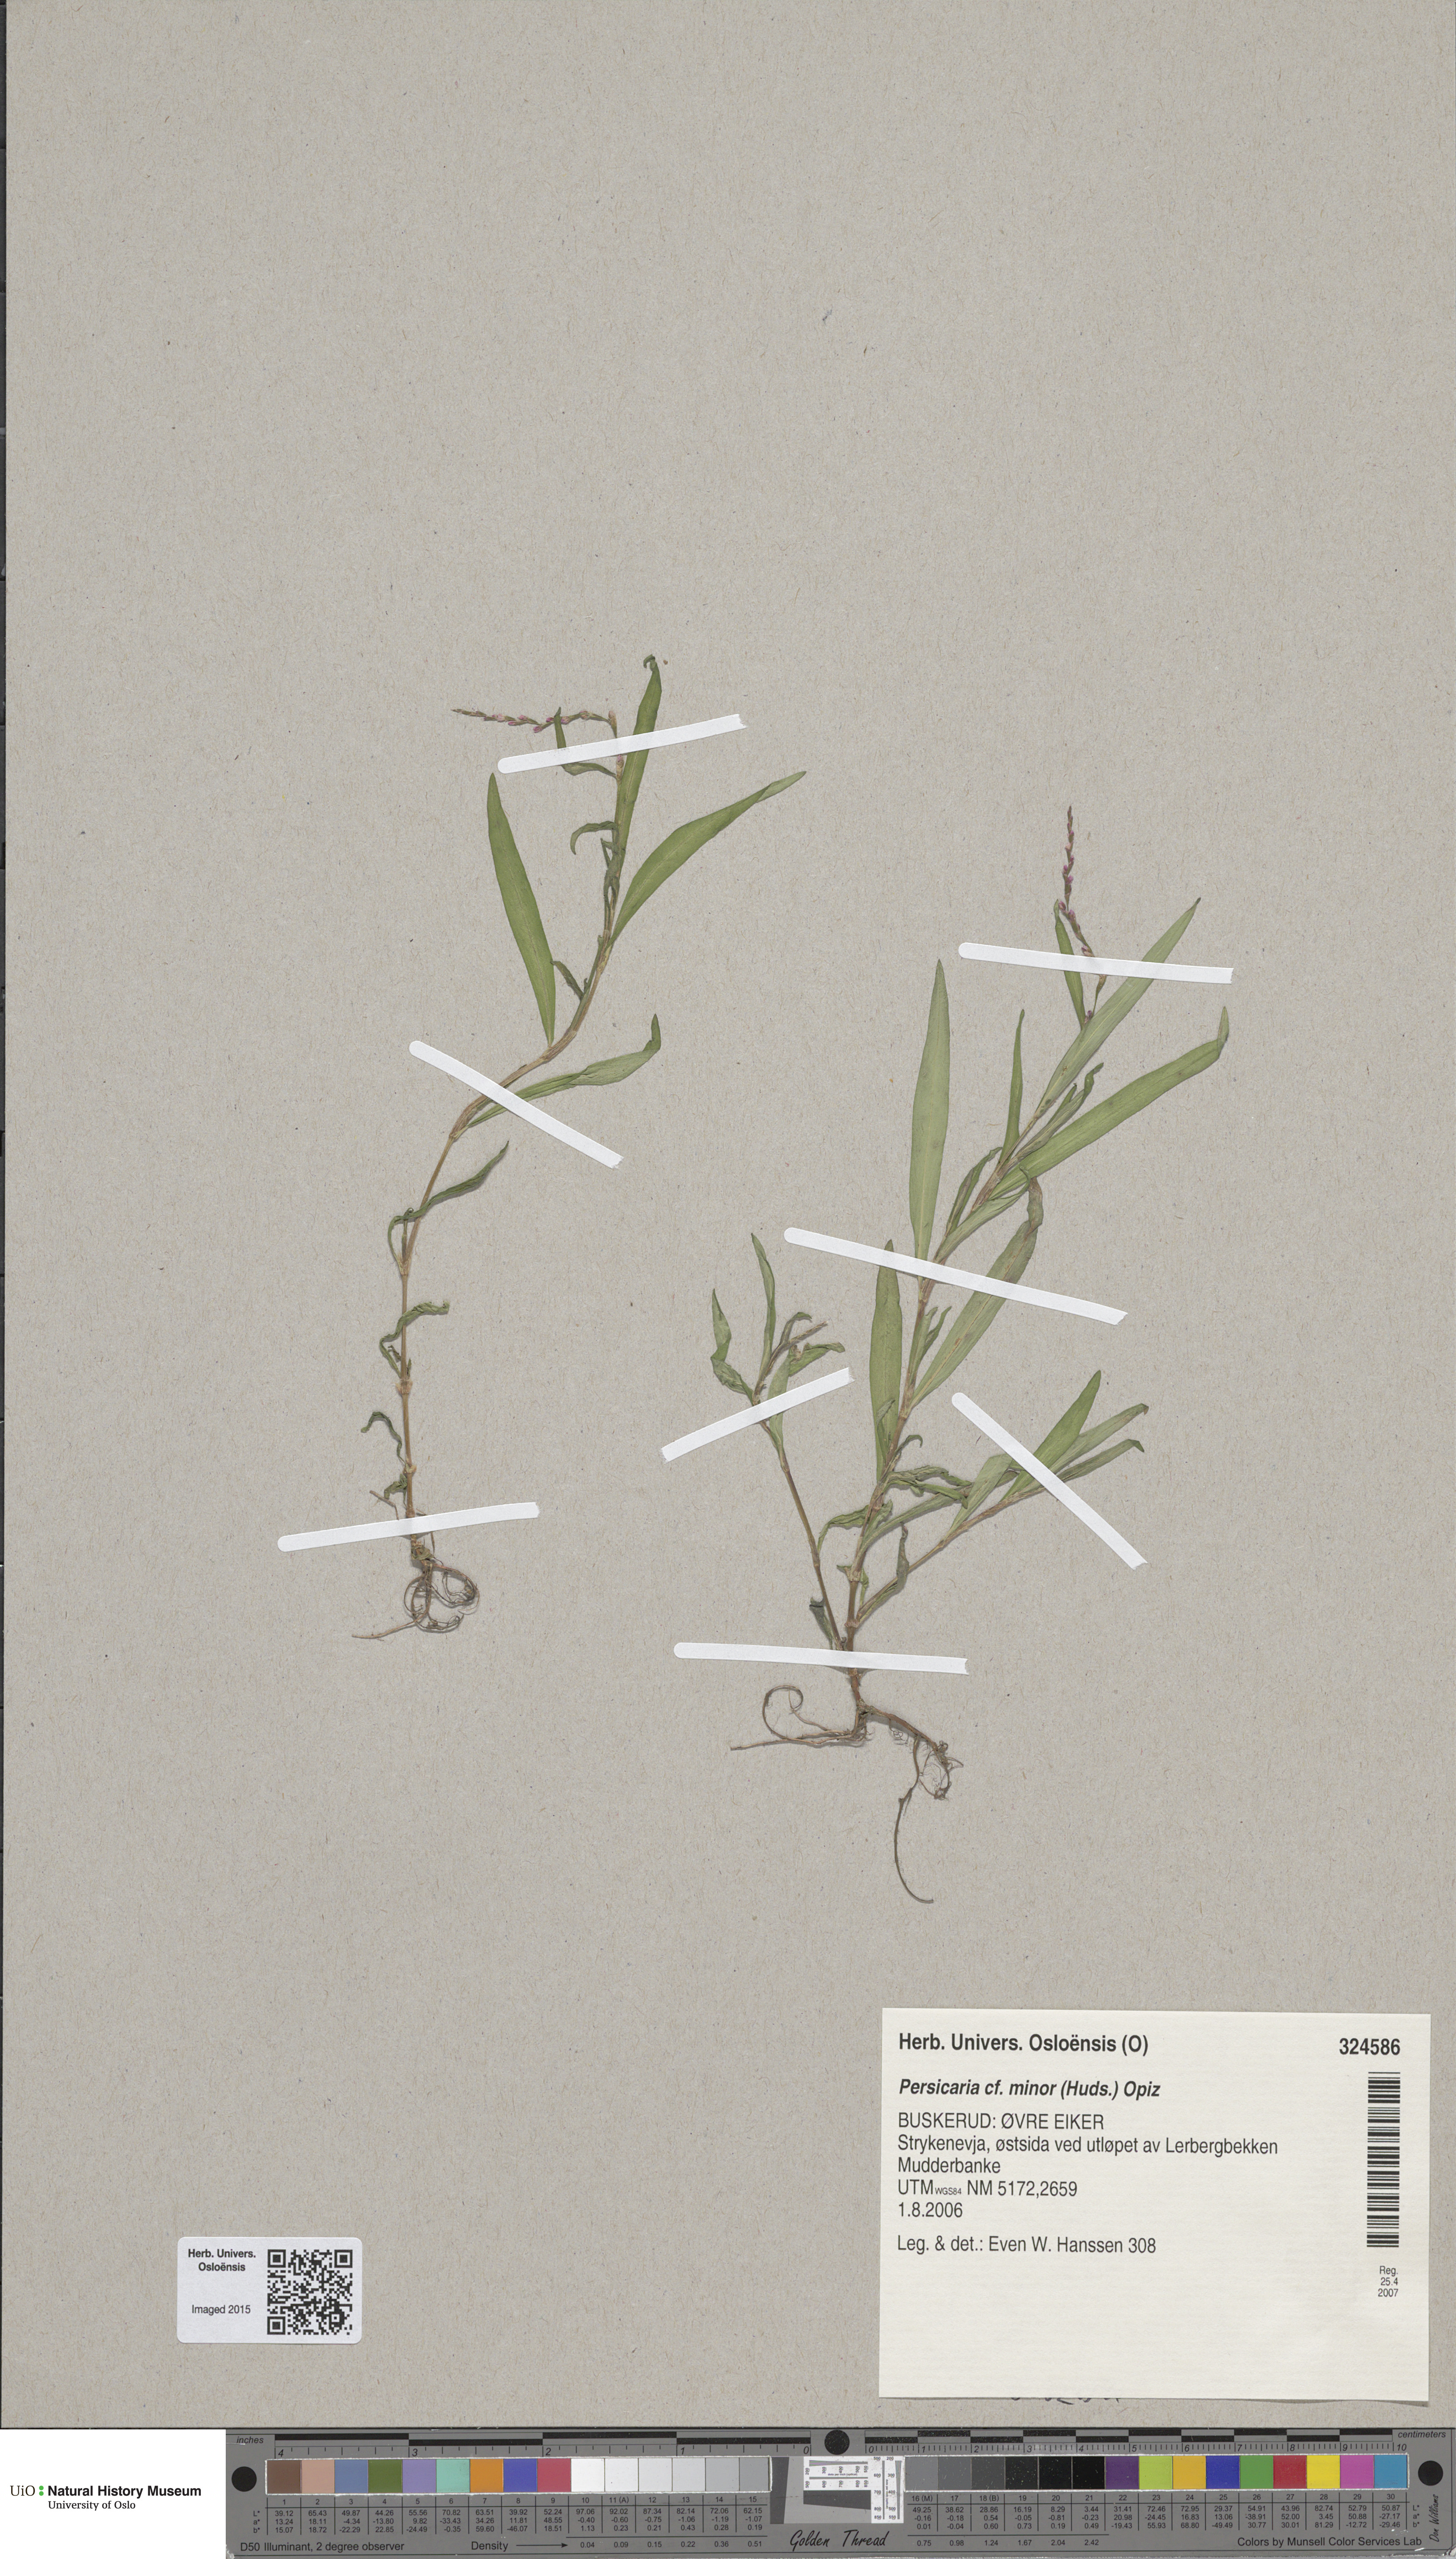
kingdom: Plantae
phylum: Tracheophyta
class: Magnoliopsida
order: Caryophyllales
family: Polygonaceae
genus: Persicaria
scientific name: Persicaria minor
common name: Small water-pepper
